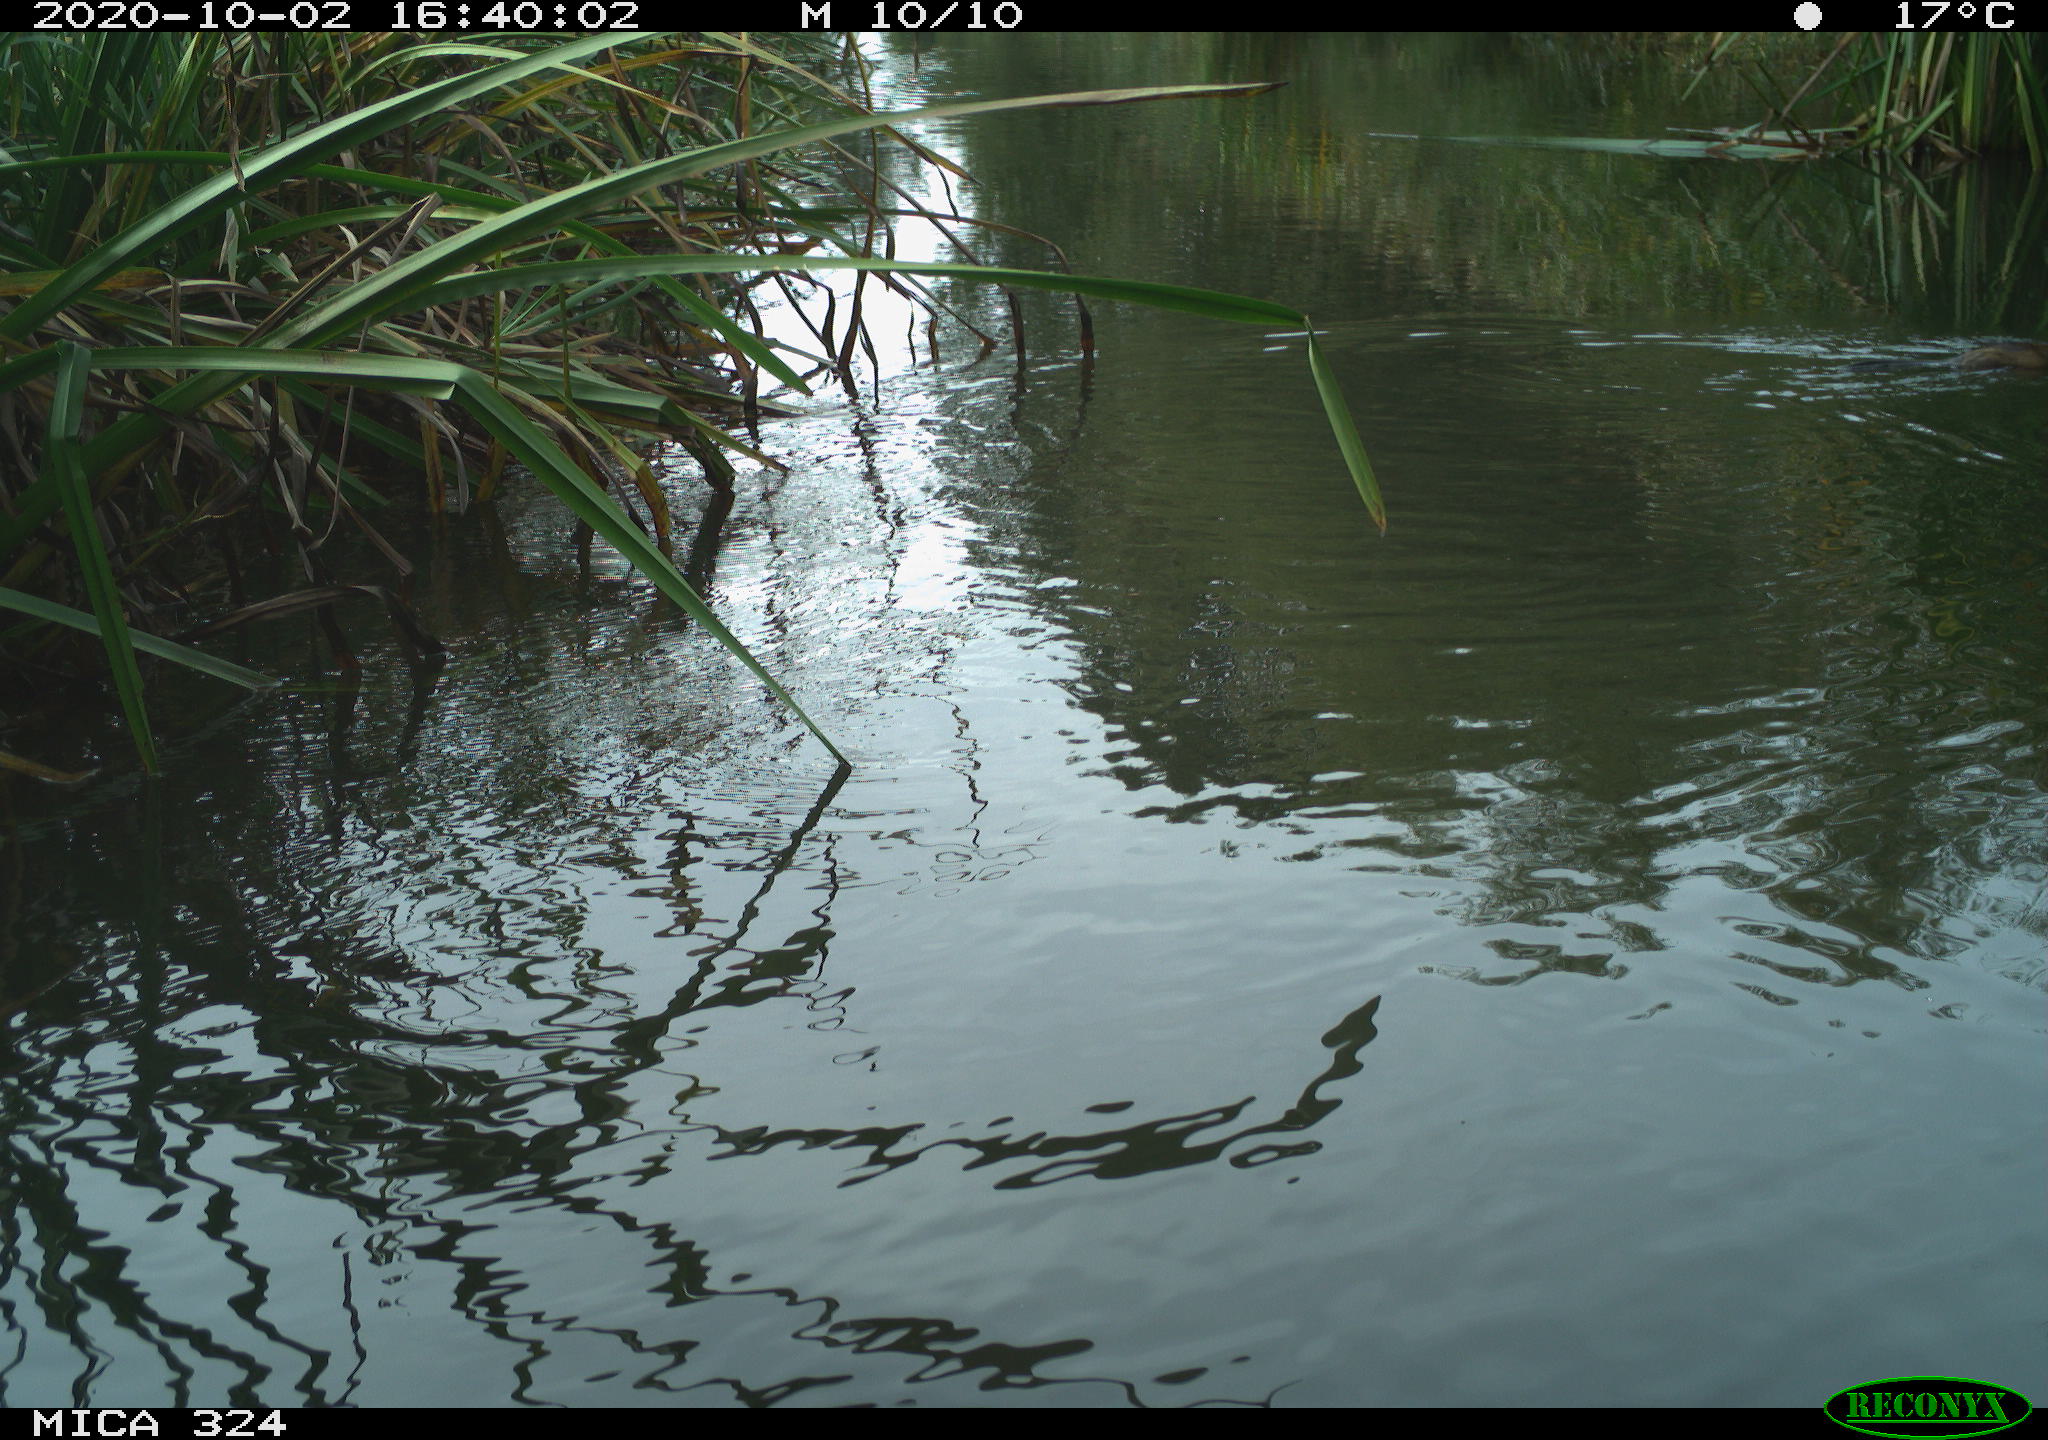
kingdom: Animalia
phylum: Chordata
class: Mammalia
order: Rodentia
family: Cricetidae
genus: Ondatra
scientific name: Ondatra zibethicus
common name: Muskrat
